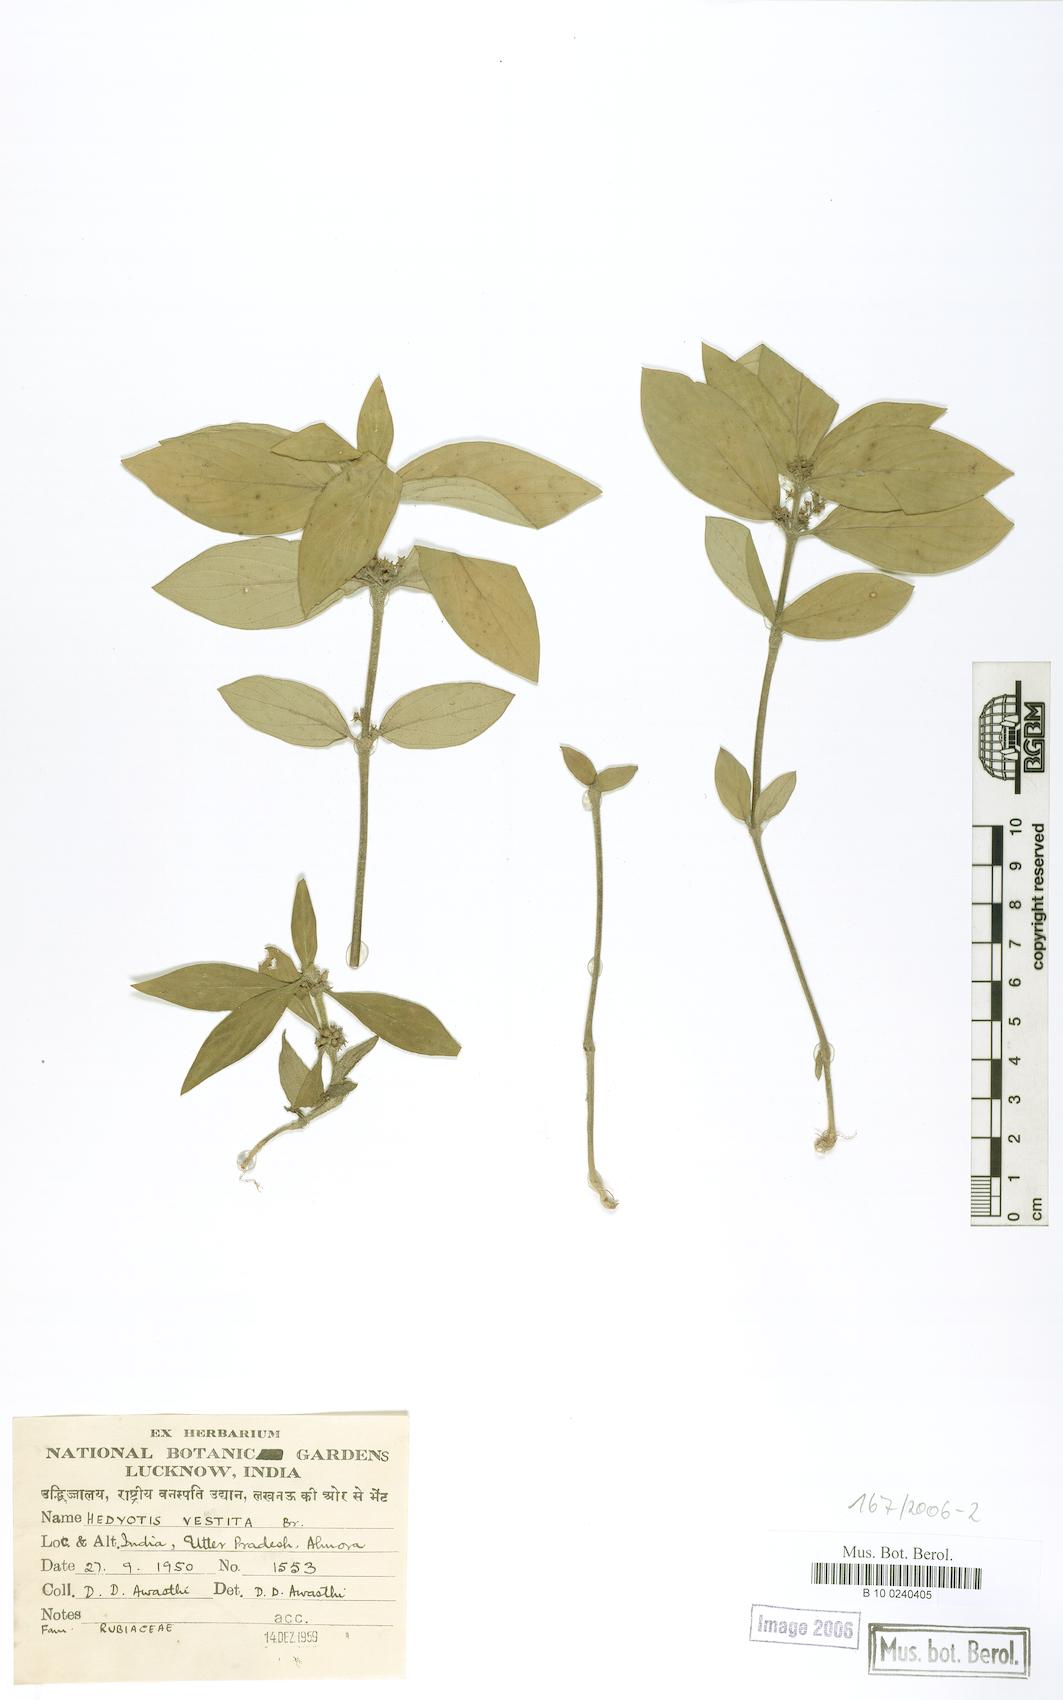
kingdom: Plantae
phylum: Tracheophyta
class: Magnoliopsida
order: Gentianales
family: Rubiaceae
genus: Hedyotis
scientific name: Hedyotis vestita
